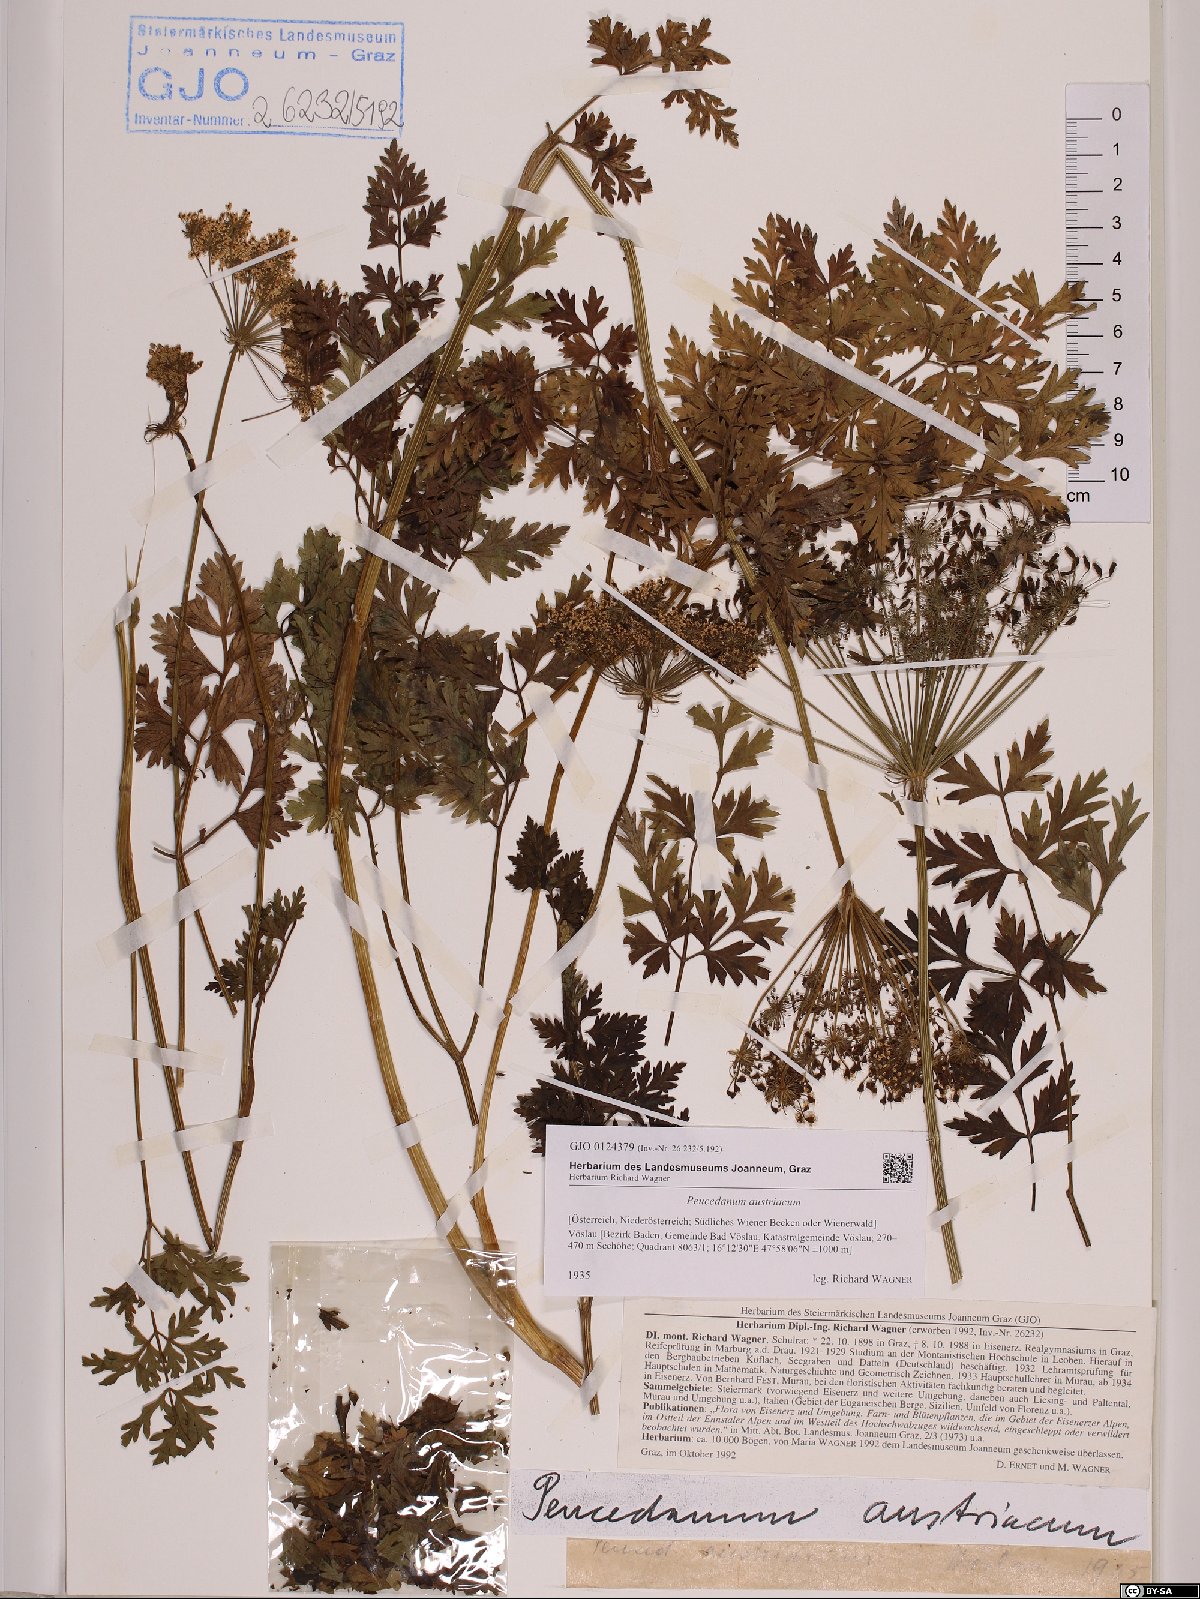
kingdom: Plantae
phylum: Tracheophyta
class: Magnoliopsida
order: Apiales
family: Apiaceae
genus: Peucedanum
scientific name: Peucedanum austriacum
